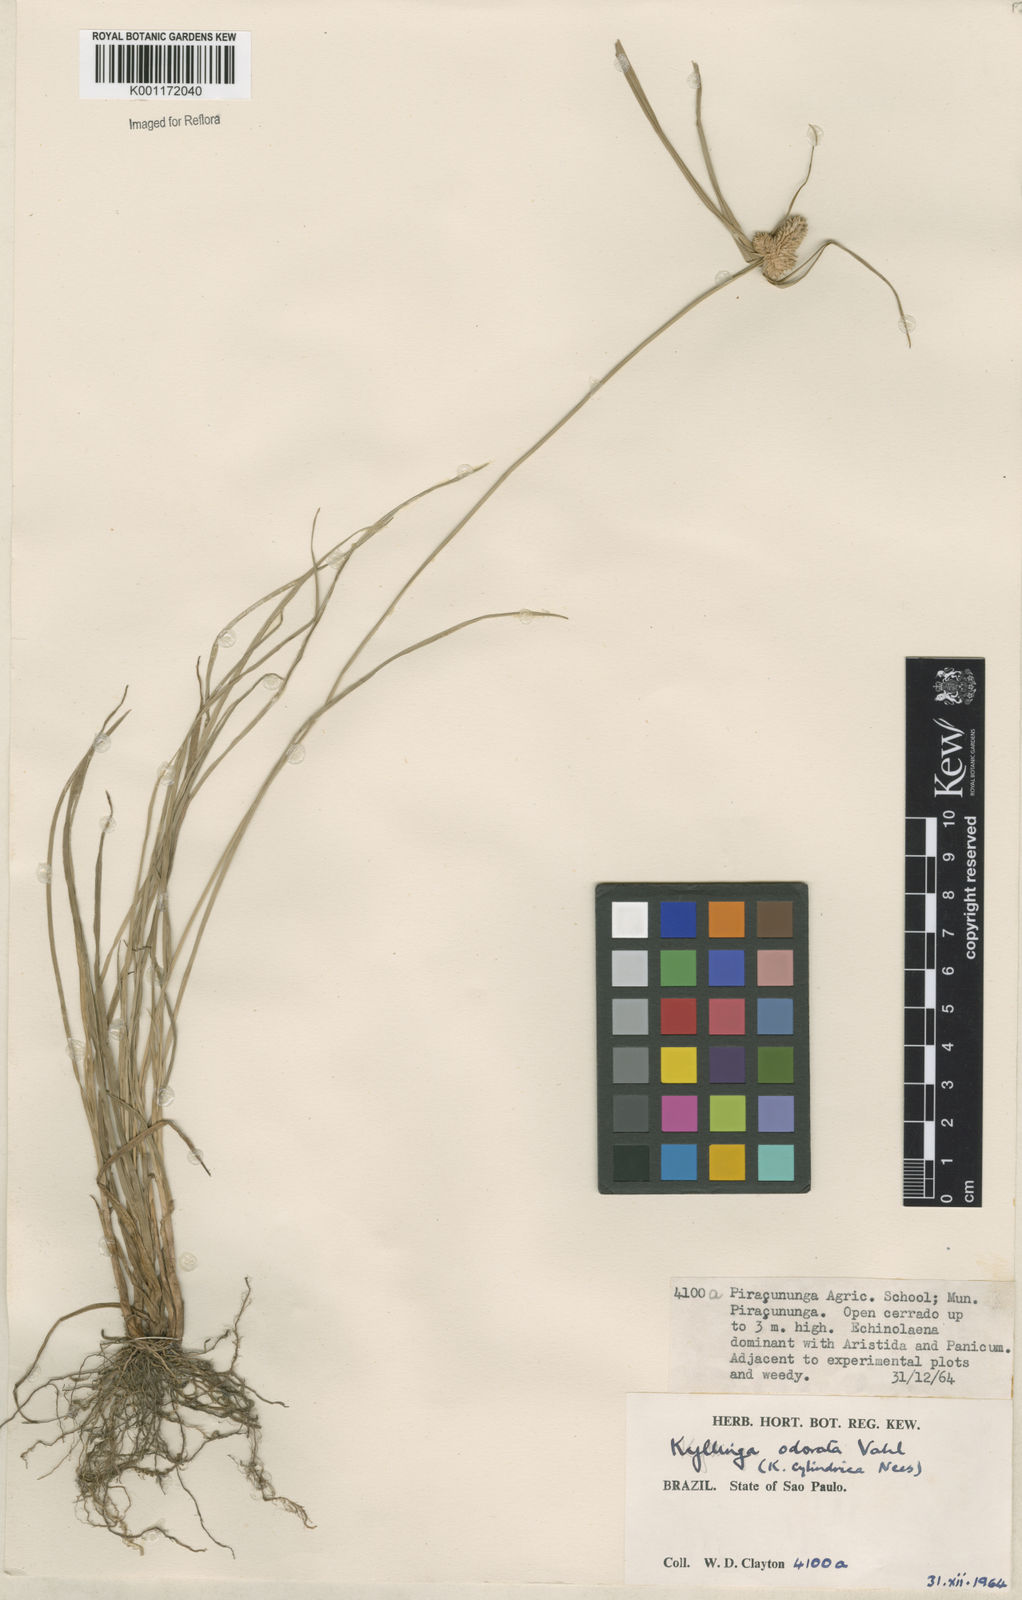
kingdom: Plantae
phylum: Tracheophyta
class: Liliopsida
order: Poales
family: Cyperaceae
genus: Cyperus
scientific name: Cyperus
